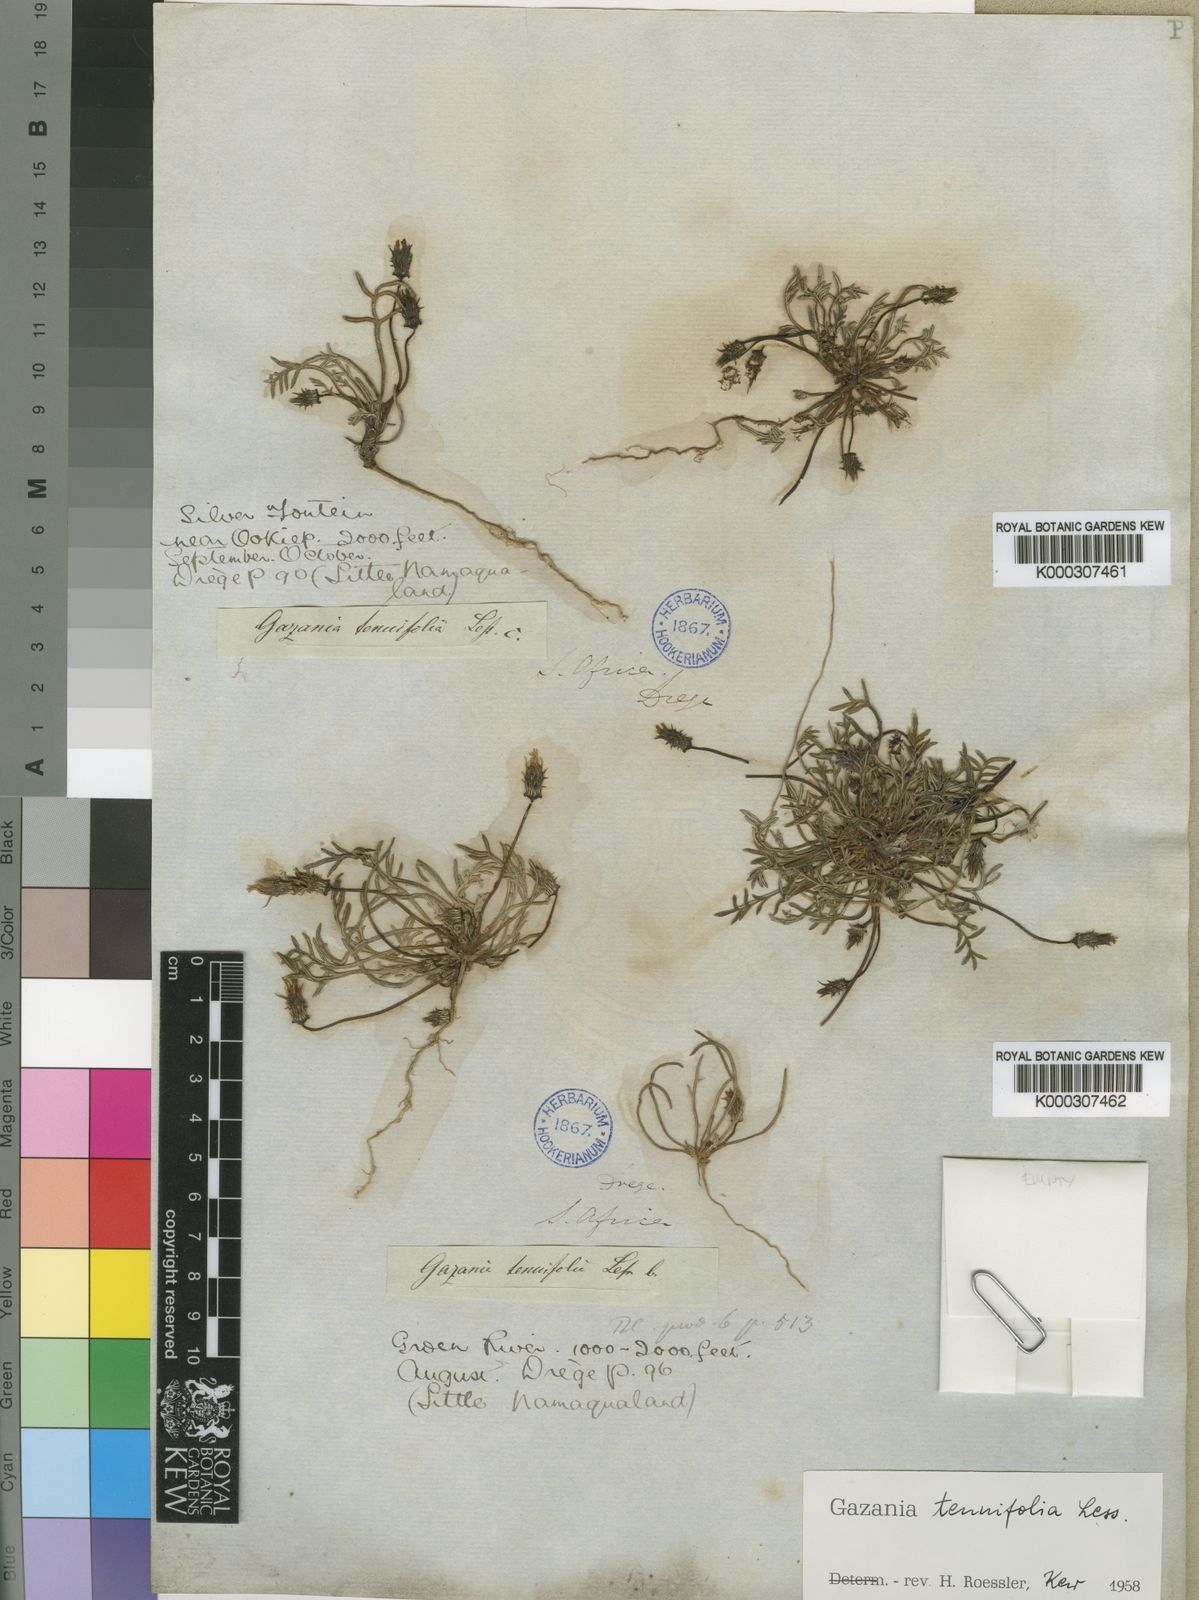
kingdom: Plantae
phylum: Tracheophyta
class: Magnoliopsida
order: Asterales
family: Asteraceae
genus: Gazania
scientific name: Gazania tenuifolia
